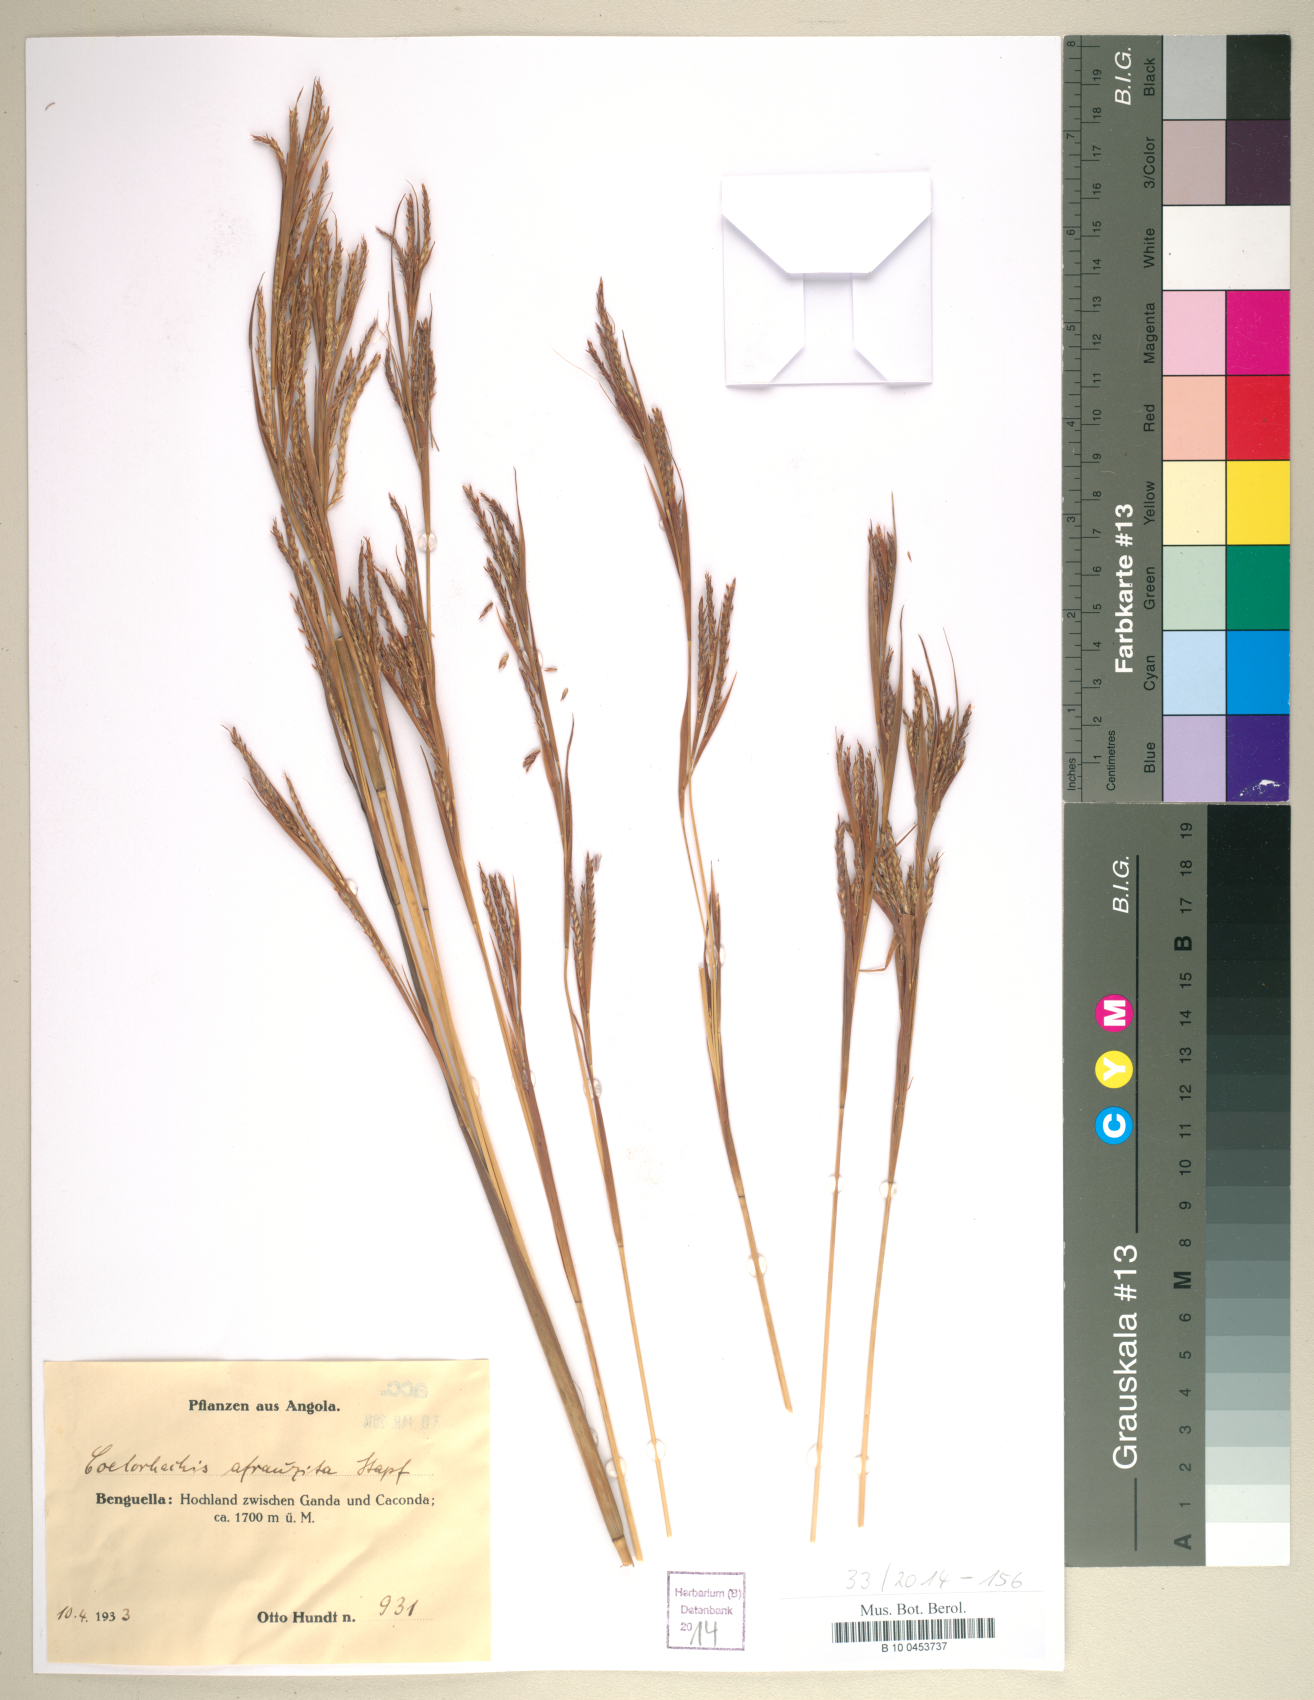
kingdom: Plantae
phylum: Tracheophyta
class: Liliopsida
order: Poales
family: Poaceae
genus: Rottboellia
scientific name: Rottboellia afraurita
